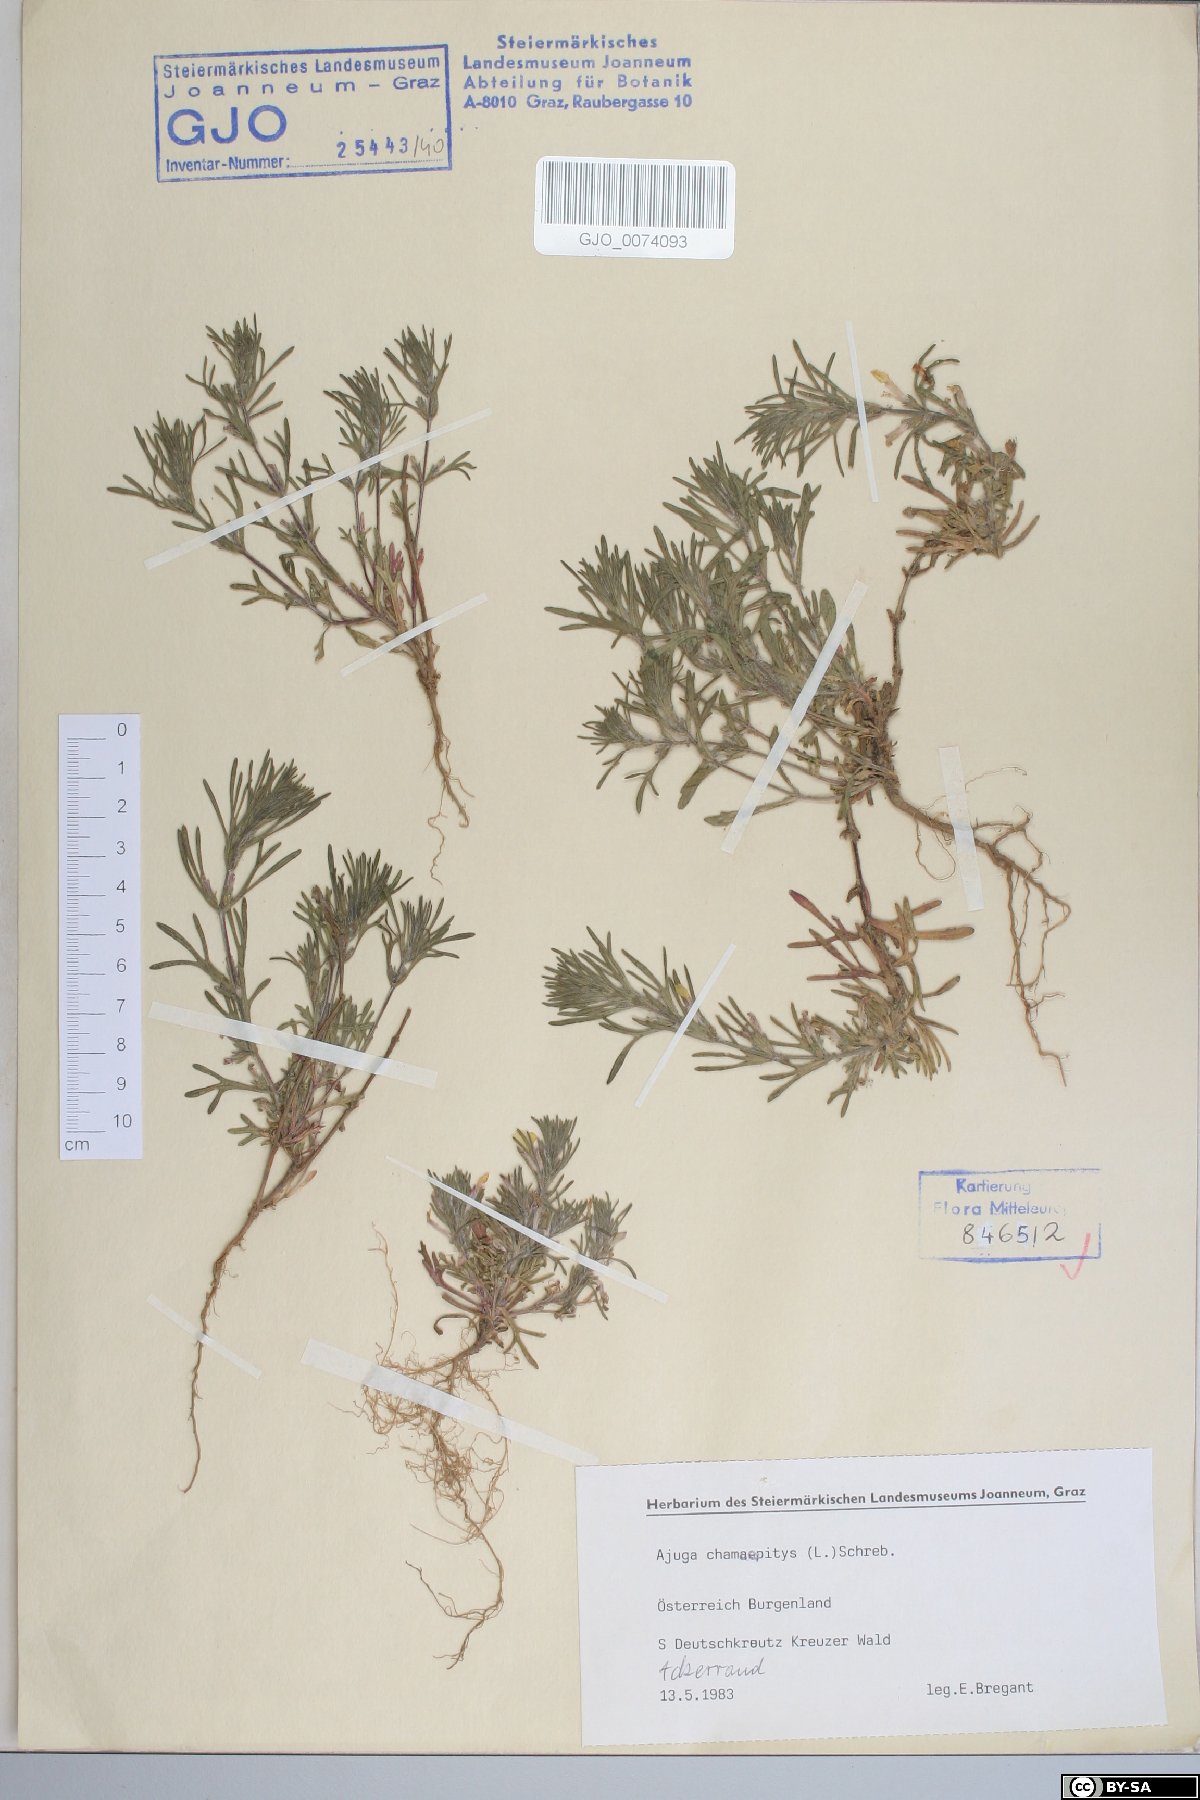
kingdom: Plantae
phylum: Tracheophyta
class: Magnoliopsida
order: Lamiales
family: Lamiaceae
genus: Ajuga
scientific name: Ajuga chamaepitys
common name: Ground-pine
